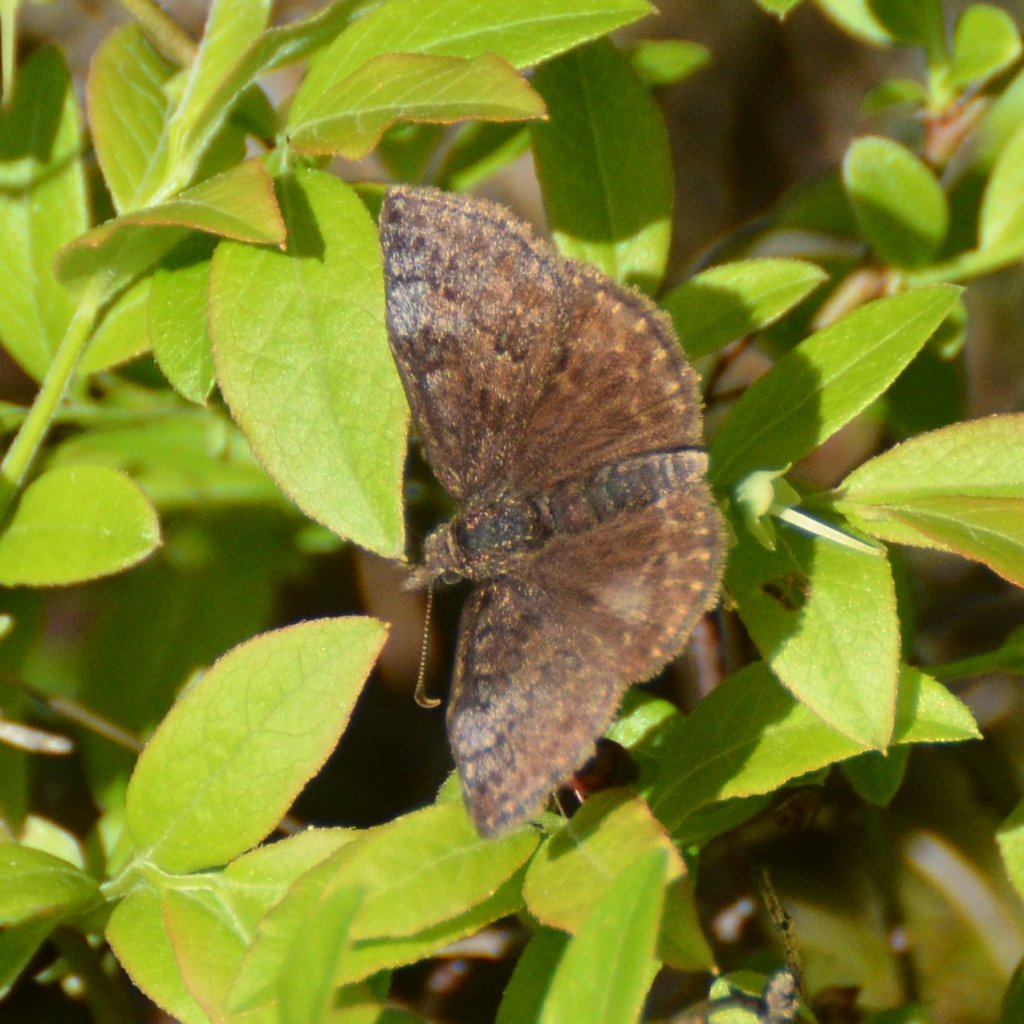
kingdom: Animalia
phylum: Arthropoda
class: Insecta
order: Lepidoptera
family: Hesperiidae
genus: Erynnis
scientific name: Erynnis icelus
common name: Dreamy Duskywing
